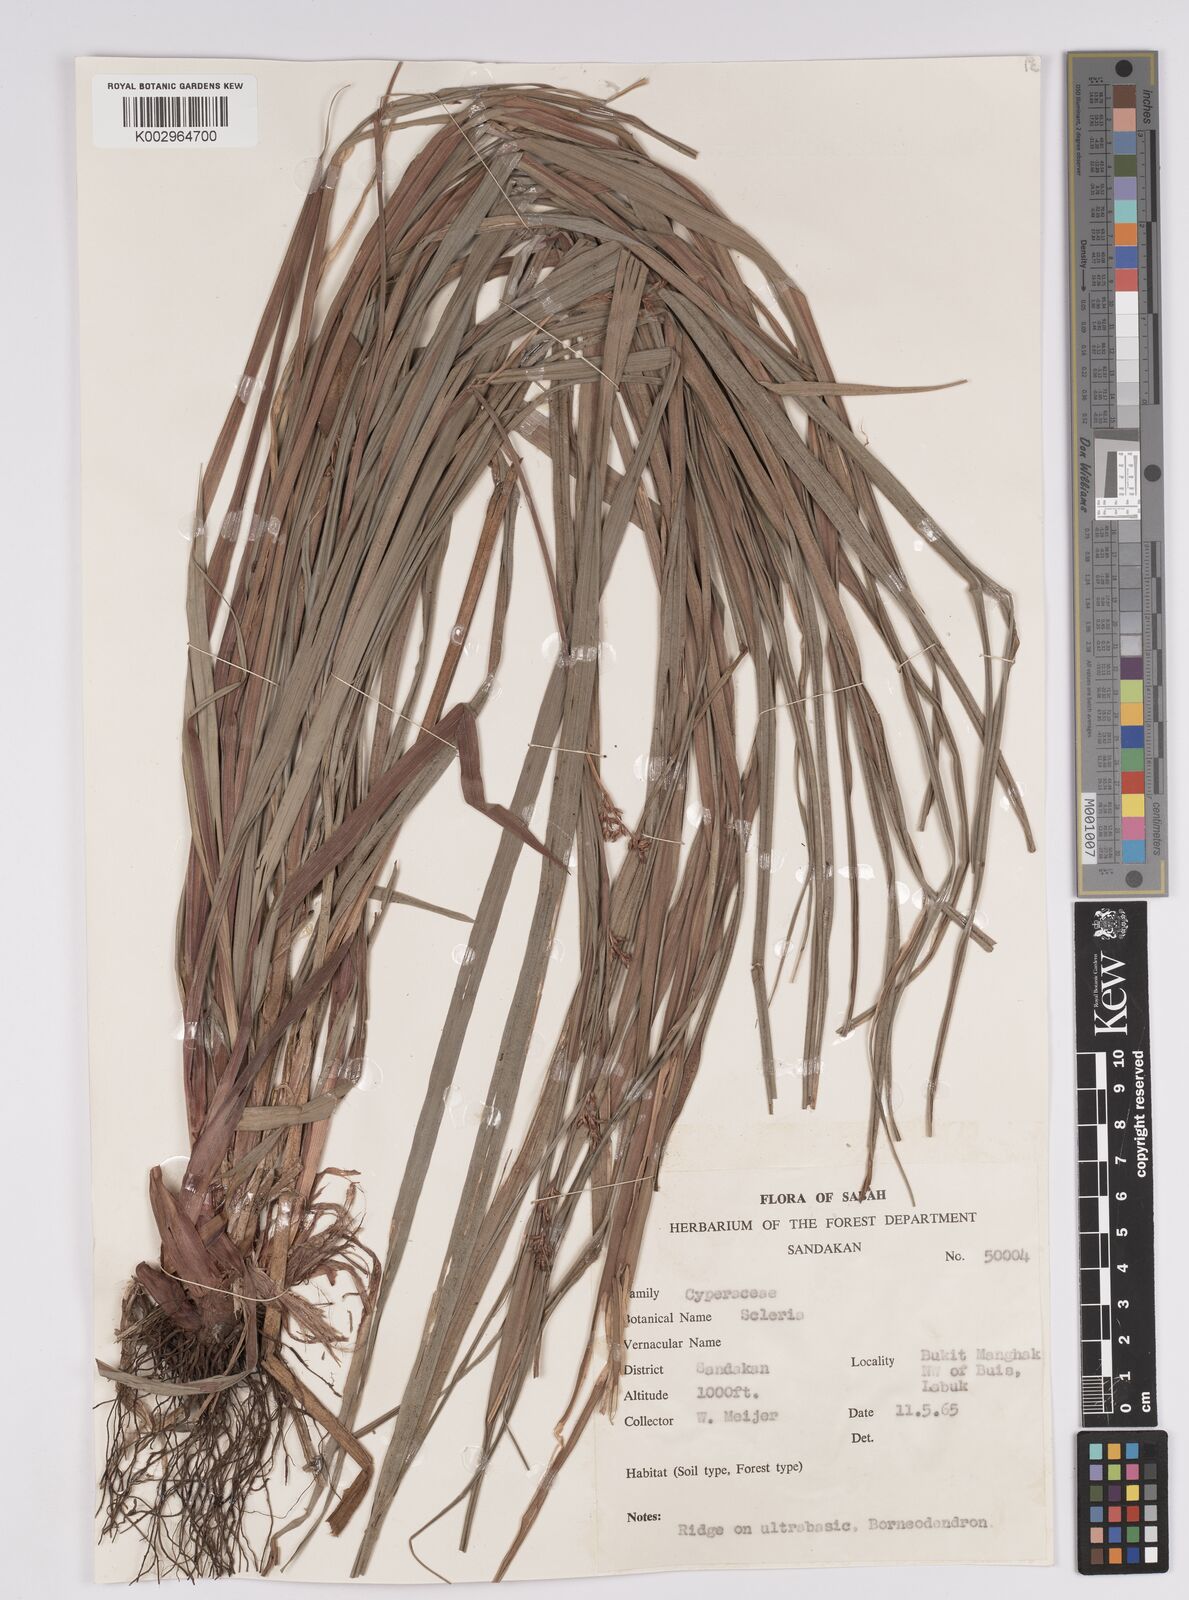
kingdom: Plantae
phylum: Tracheophyta
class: Liliopsida
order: Poales
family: Cyperaceae
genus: Scleria
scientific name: Scleria
